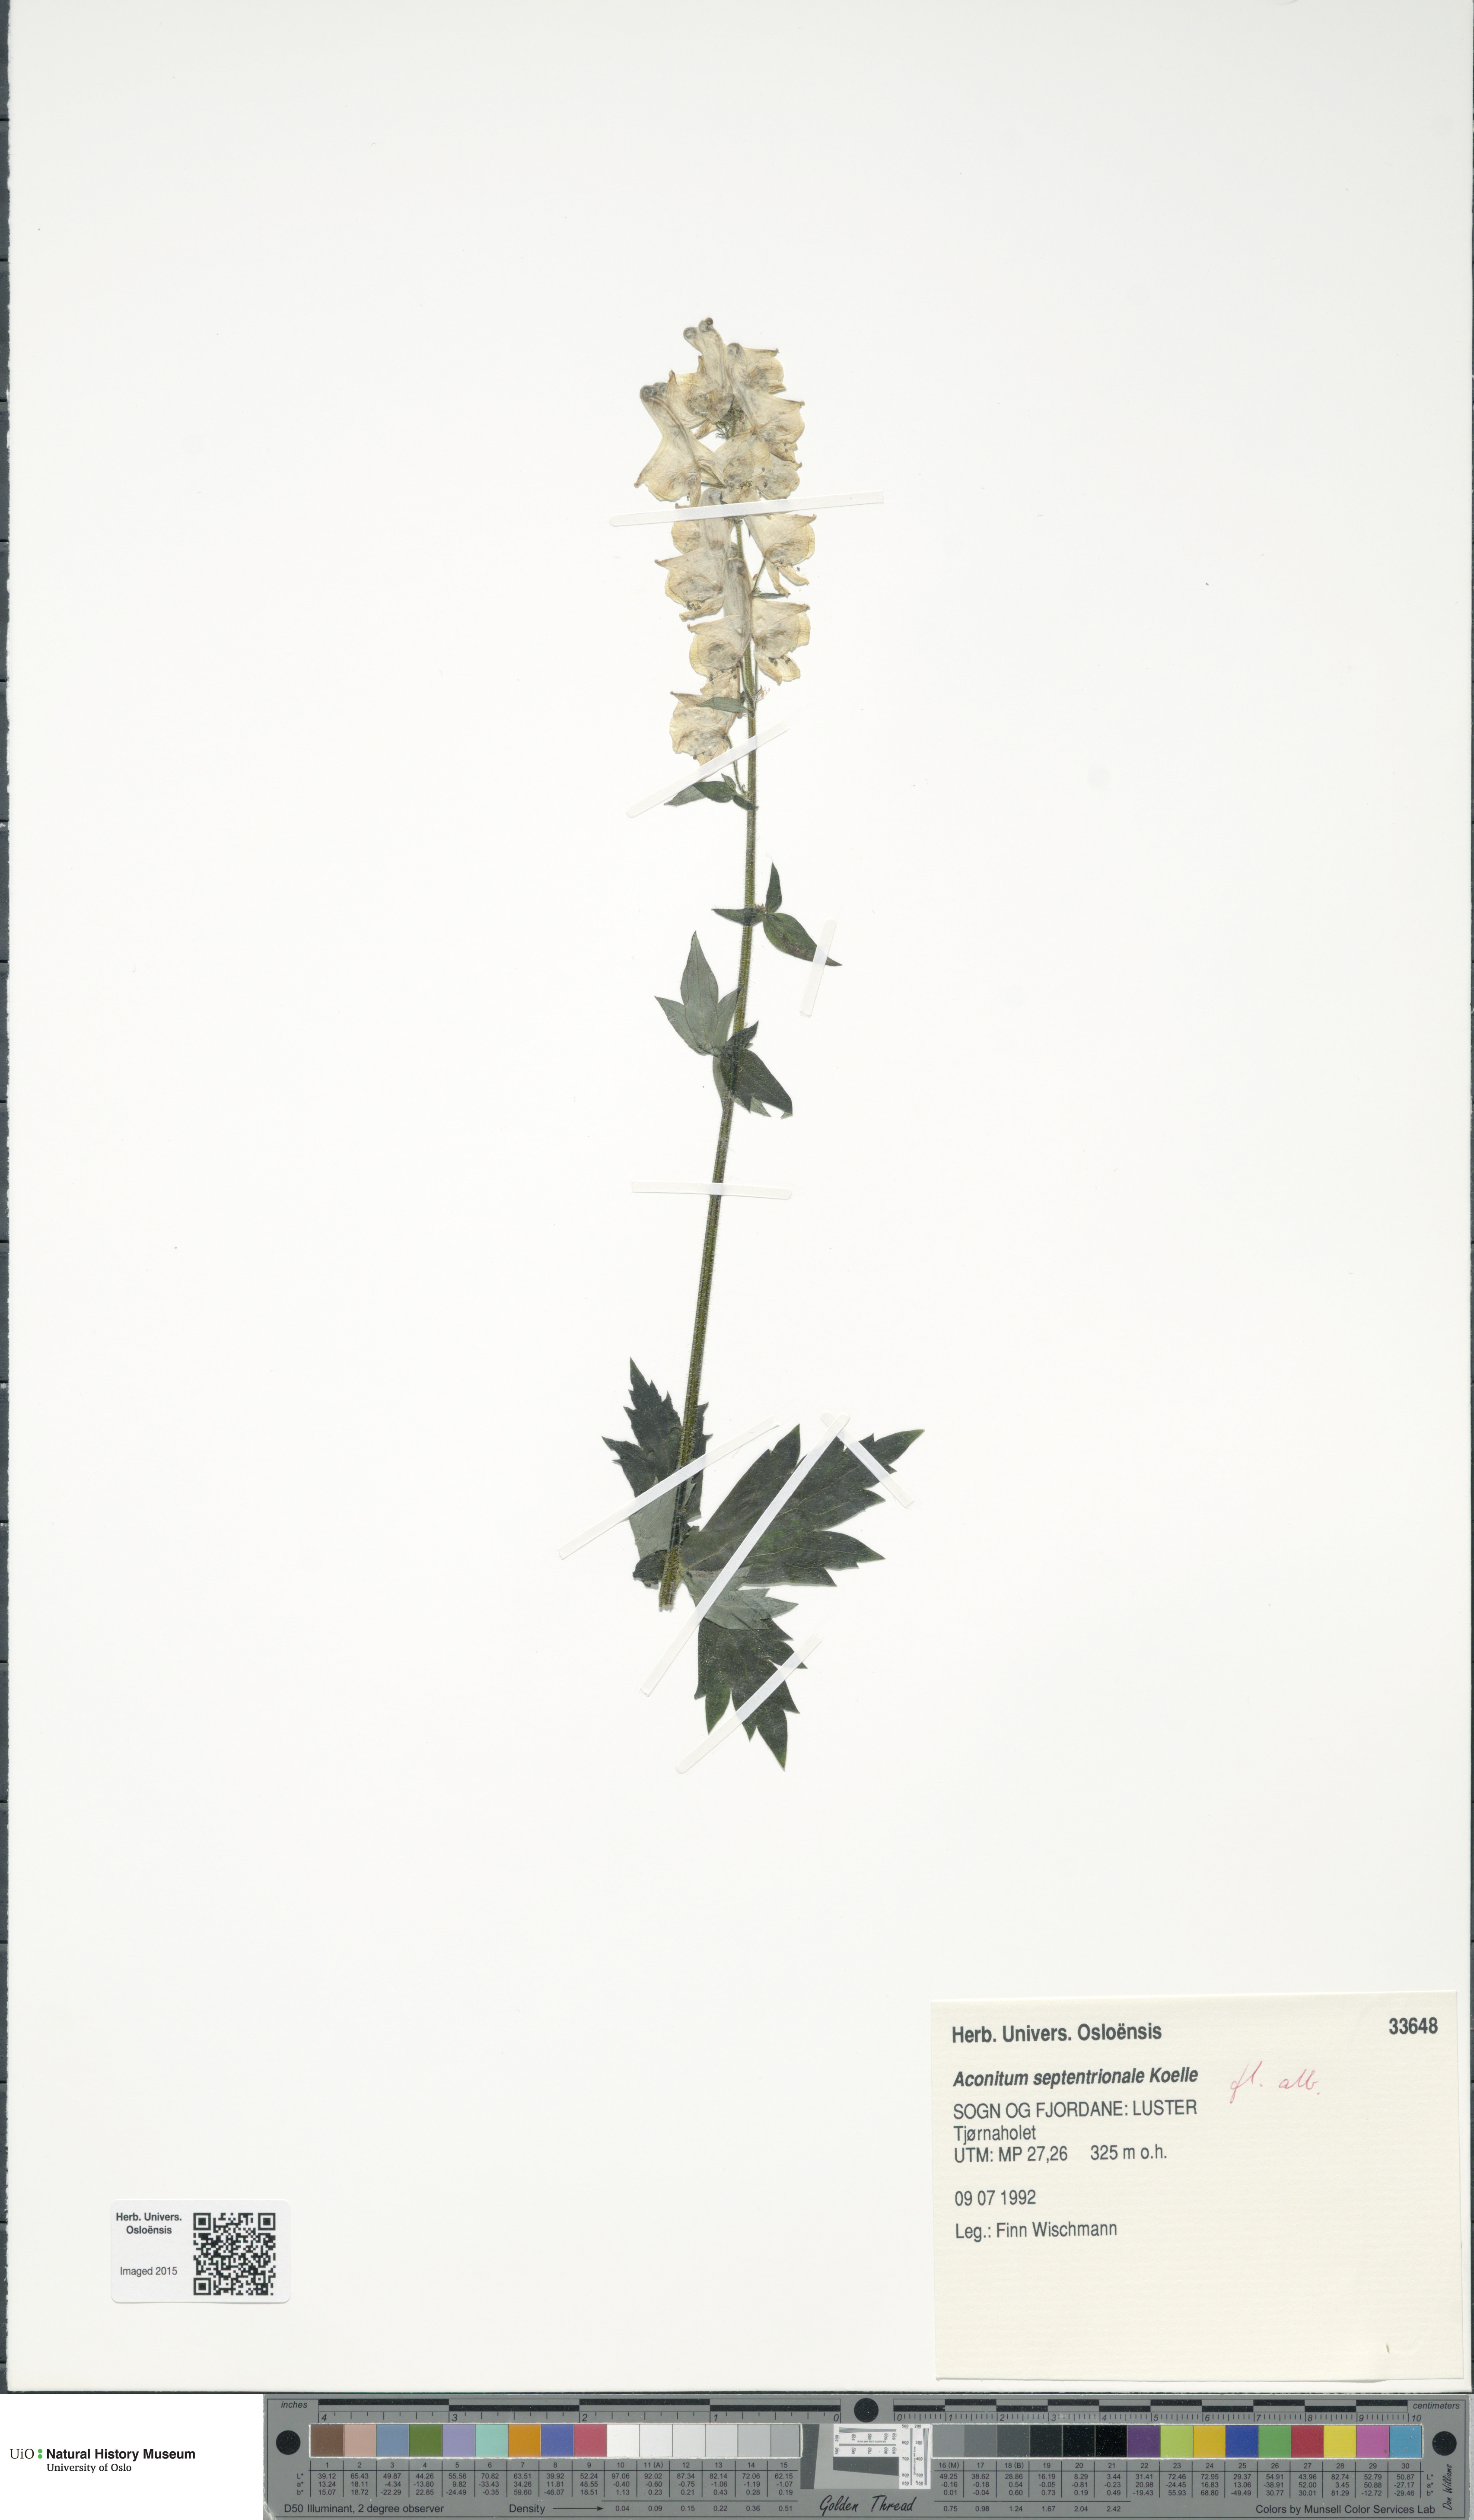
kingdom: Plantae
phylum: Tracheophyta
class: Magnoliopsida
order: Ranunculales
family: Ranunculaceae
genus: Aconitum
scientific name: Aconitum septentrionale
